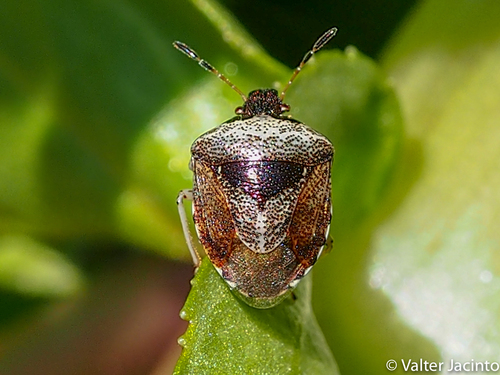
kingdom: Animalia
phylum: Arthropoda
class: Insecta
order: Hemiptera
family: Pentatomidae
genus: Eysarcoris
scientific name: Eysarcoris venustissimus
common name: Woundwort shieldbug
